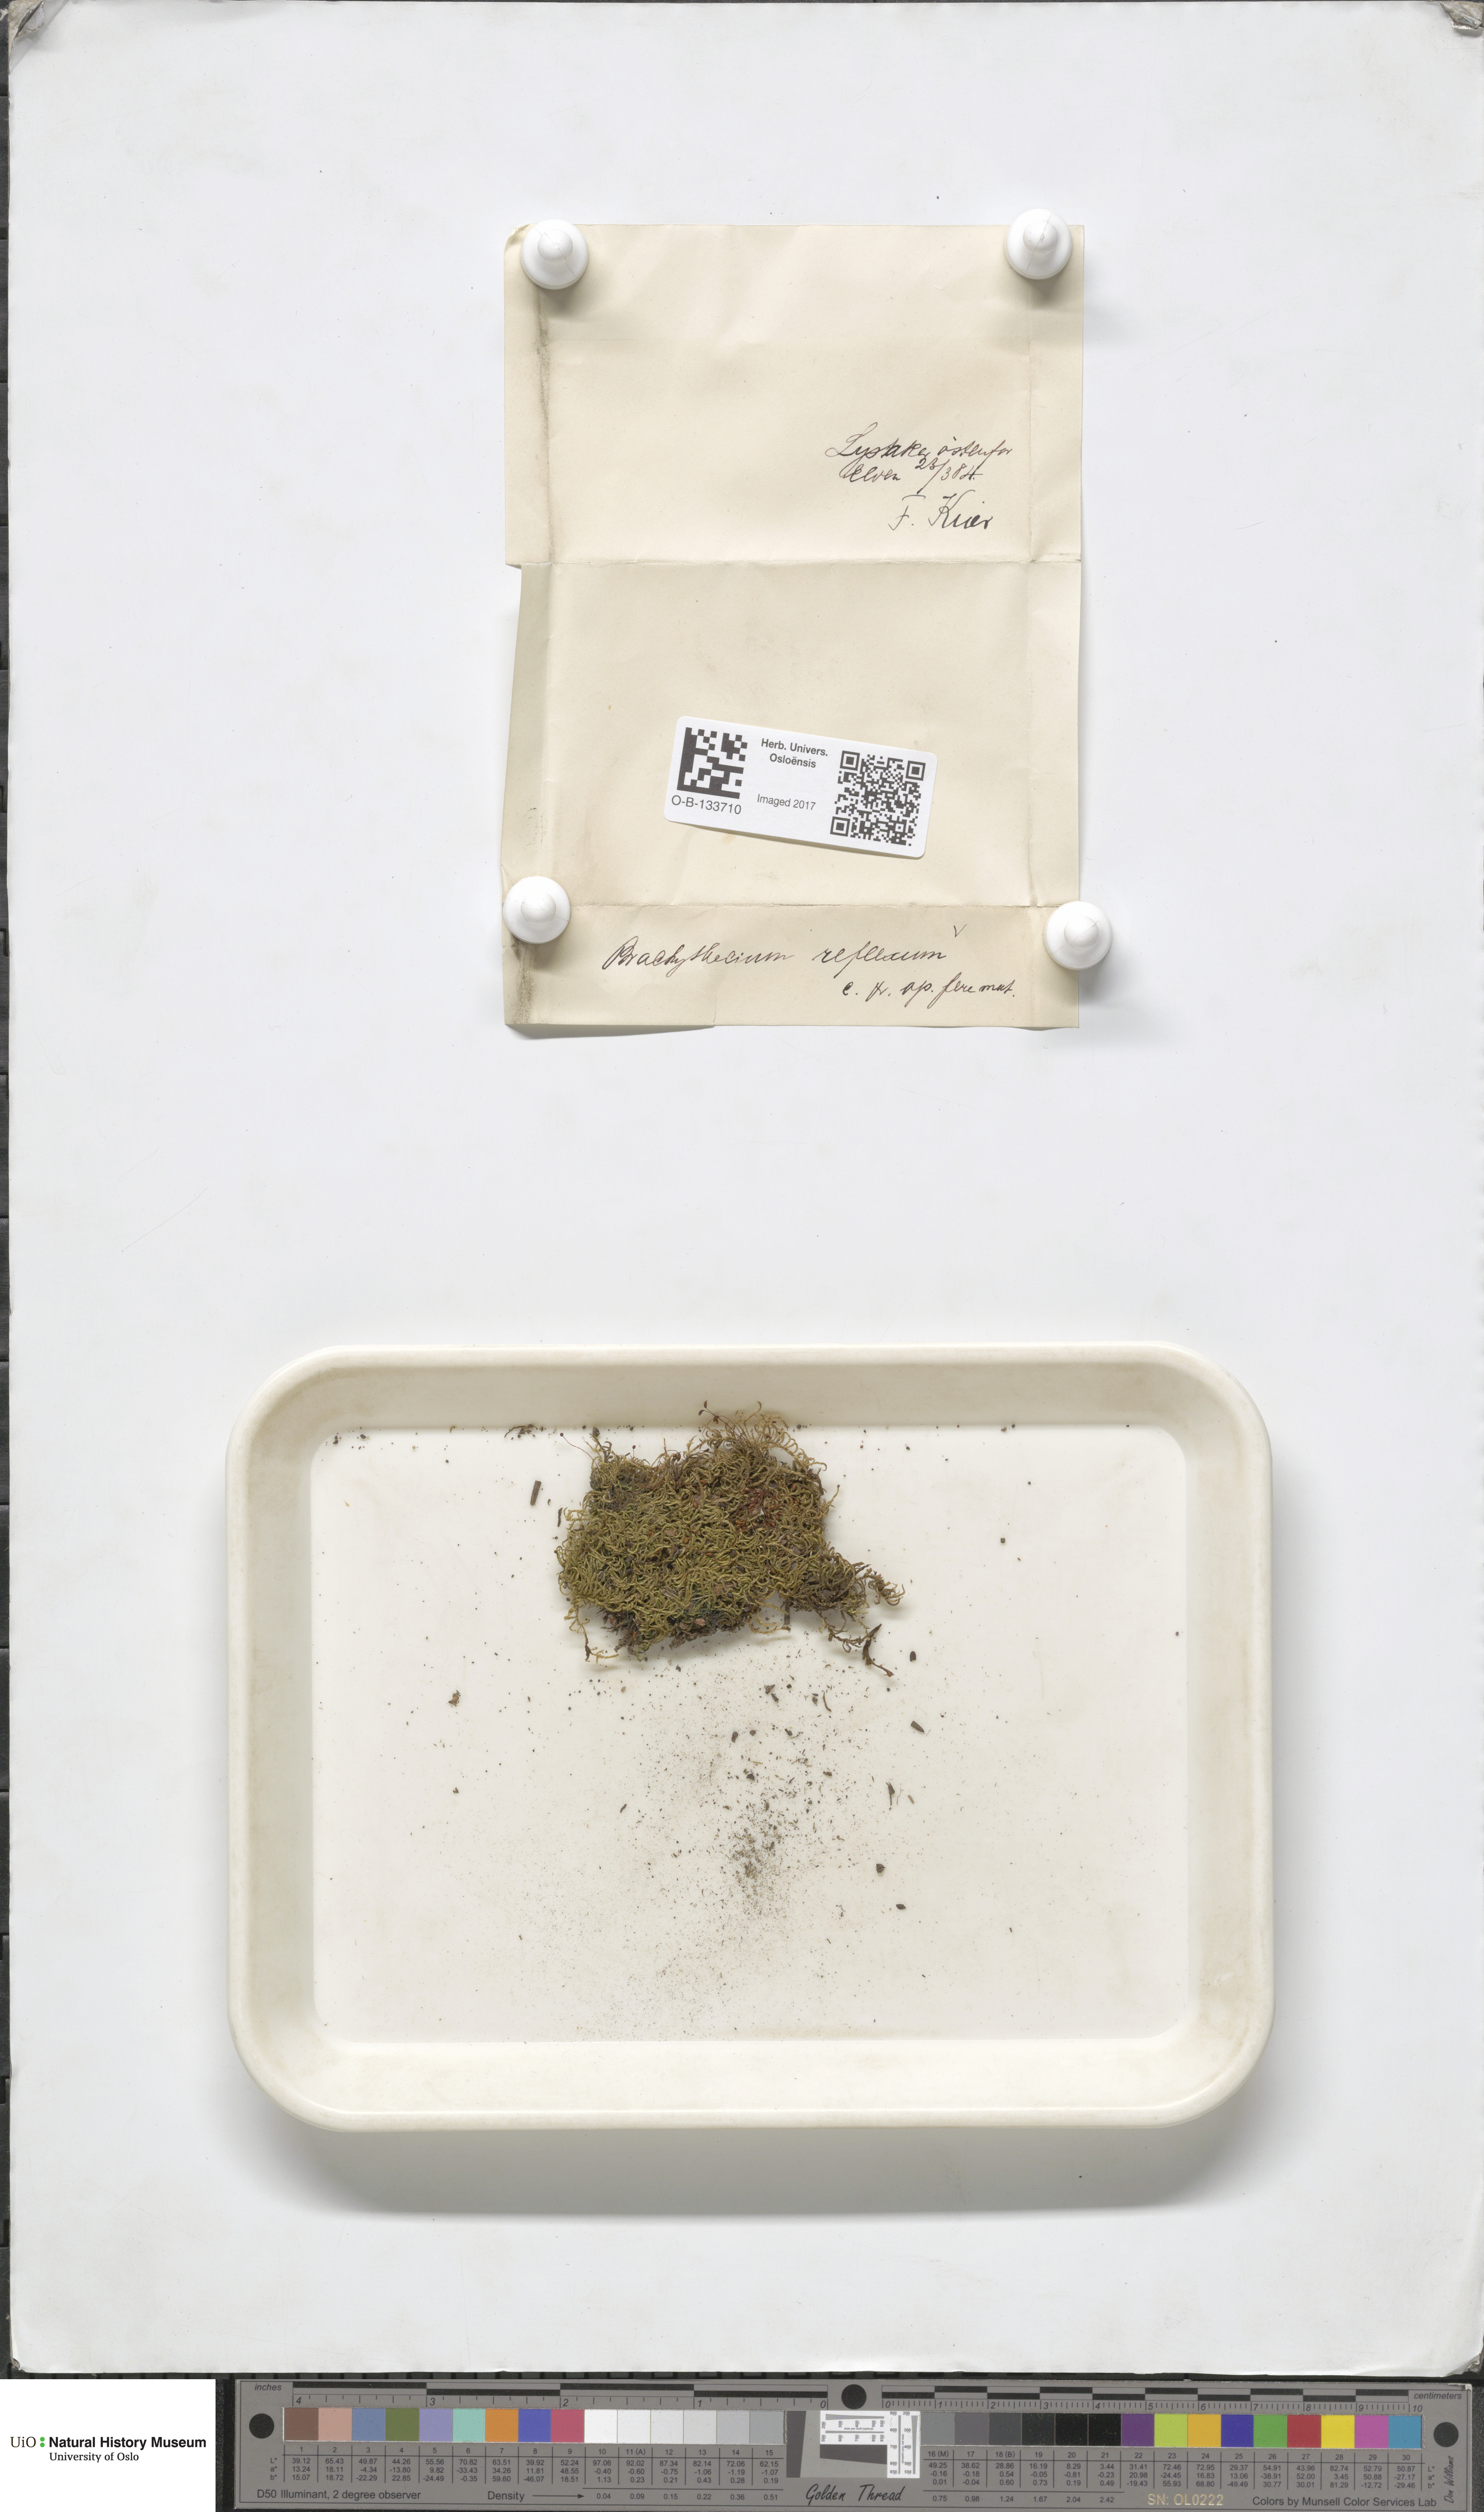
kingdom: Plantae
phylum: Bryophyta
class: Bryopsida
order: Hypnales
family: Brachytheciaceae
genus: Sciuro-hypnum
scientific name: Sciuro-hypnum reflexum
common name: Reflexed feather-moss
